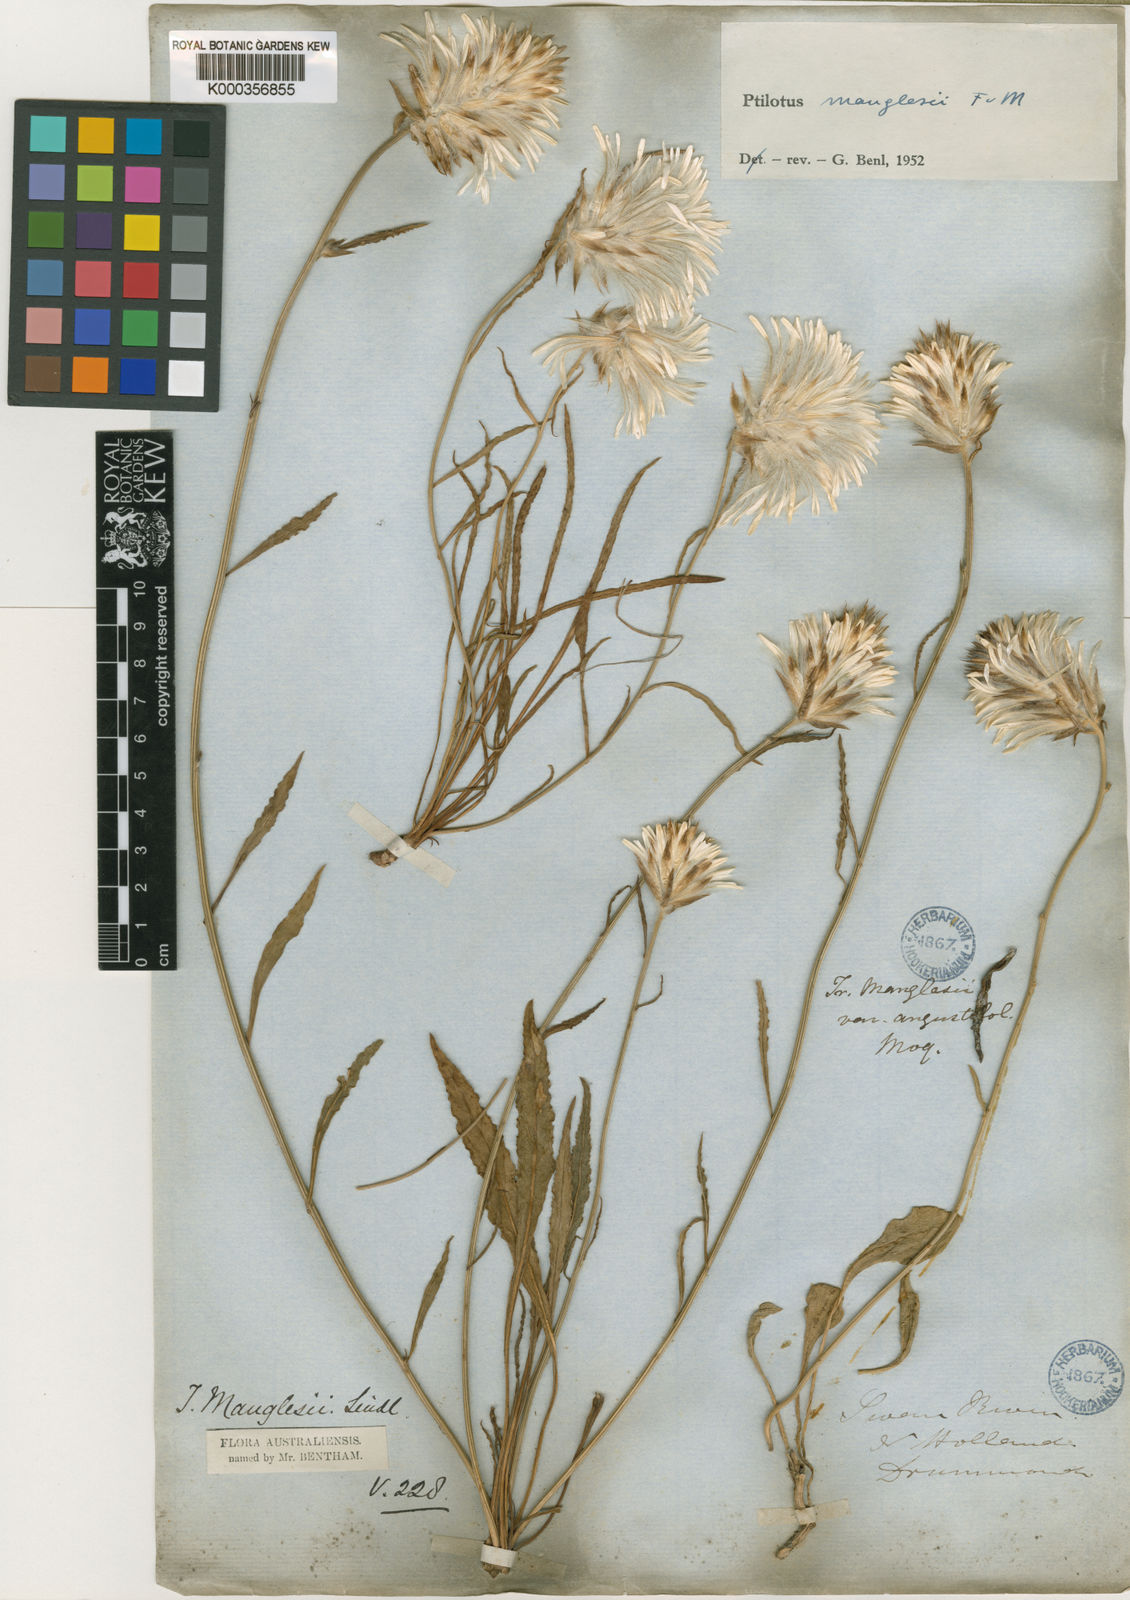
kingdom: Plantae
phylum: Tracheophyta
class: Magnoliopsida
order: Caryophyllales
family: Amaranthaceae
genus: Ptilotus
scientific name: Ptilotus manglesii
